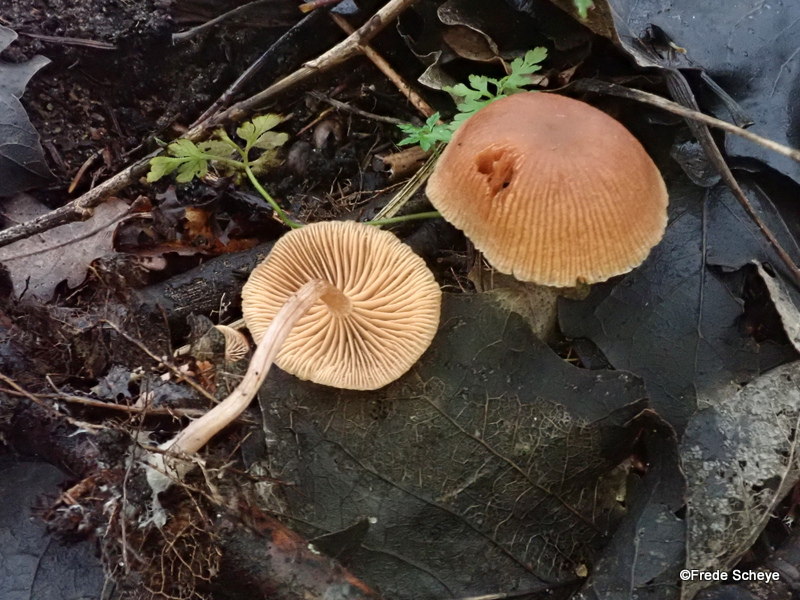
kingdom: Fungi
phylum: Basidiomycota
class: Agaricomycetes
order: Agaricales
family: Tubariaceae
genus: Tubaria
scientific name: Tubaria furfuracea
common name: kliddet fnughat
